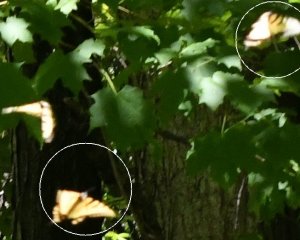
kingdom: Animalia
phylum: Arthropoda
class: Insecta
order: Lepidoptera
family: Papilionidae
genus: Pterourus
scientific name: Pterourus canadensis
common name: Canadian Tiger Swallowtail
